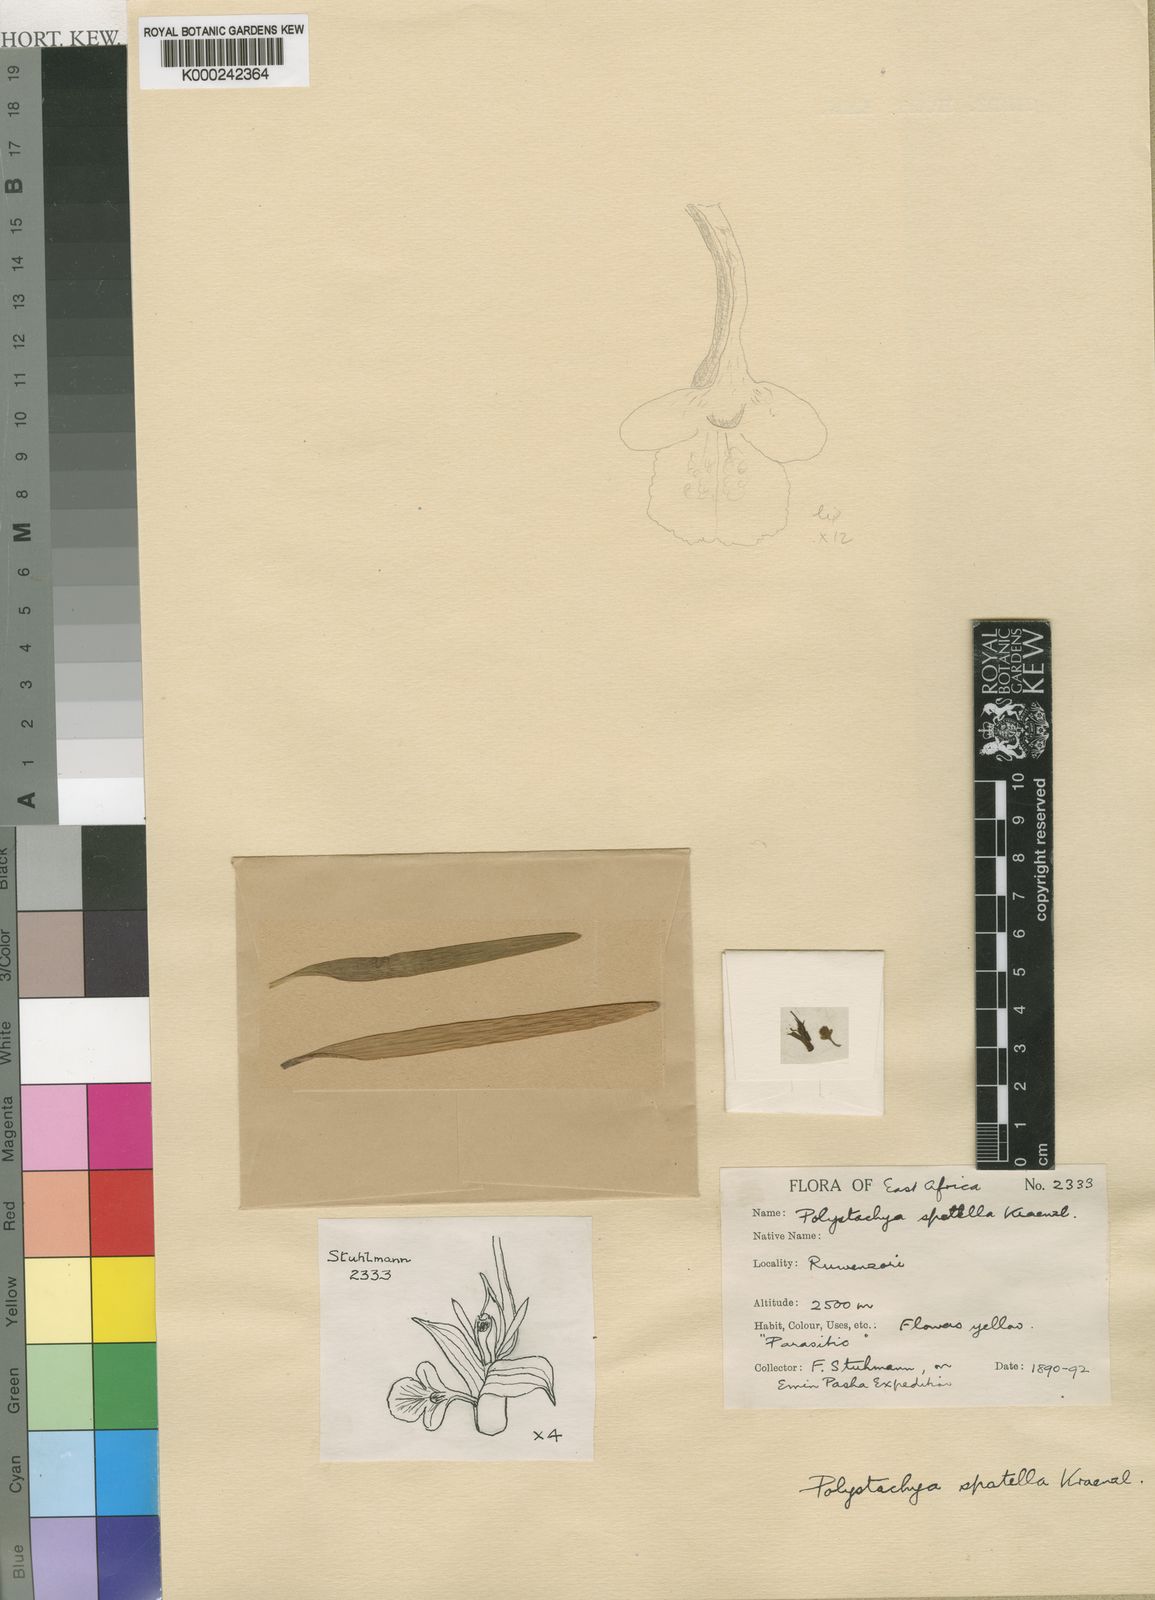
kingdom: Plantae
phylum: Tracheophyta
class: Liliopsida
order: Asparagales
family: Orchidaceae
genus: Polystachya
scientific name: Polystachya spatella
